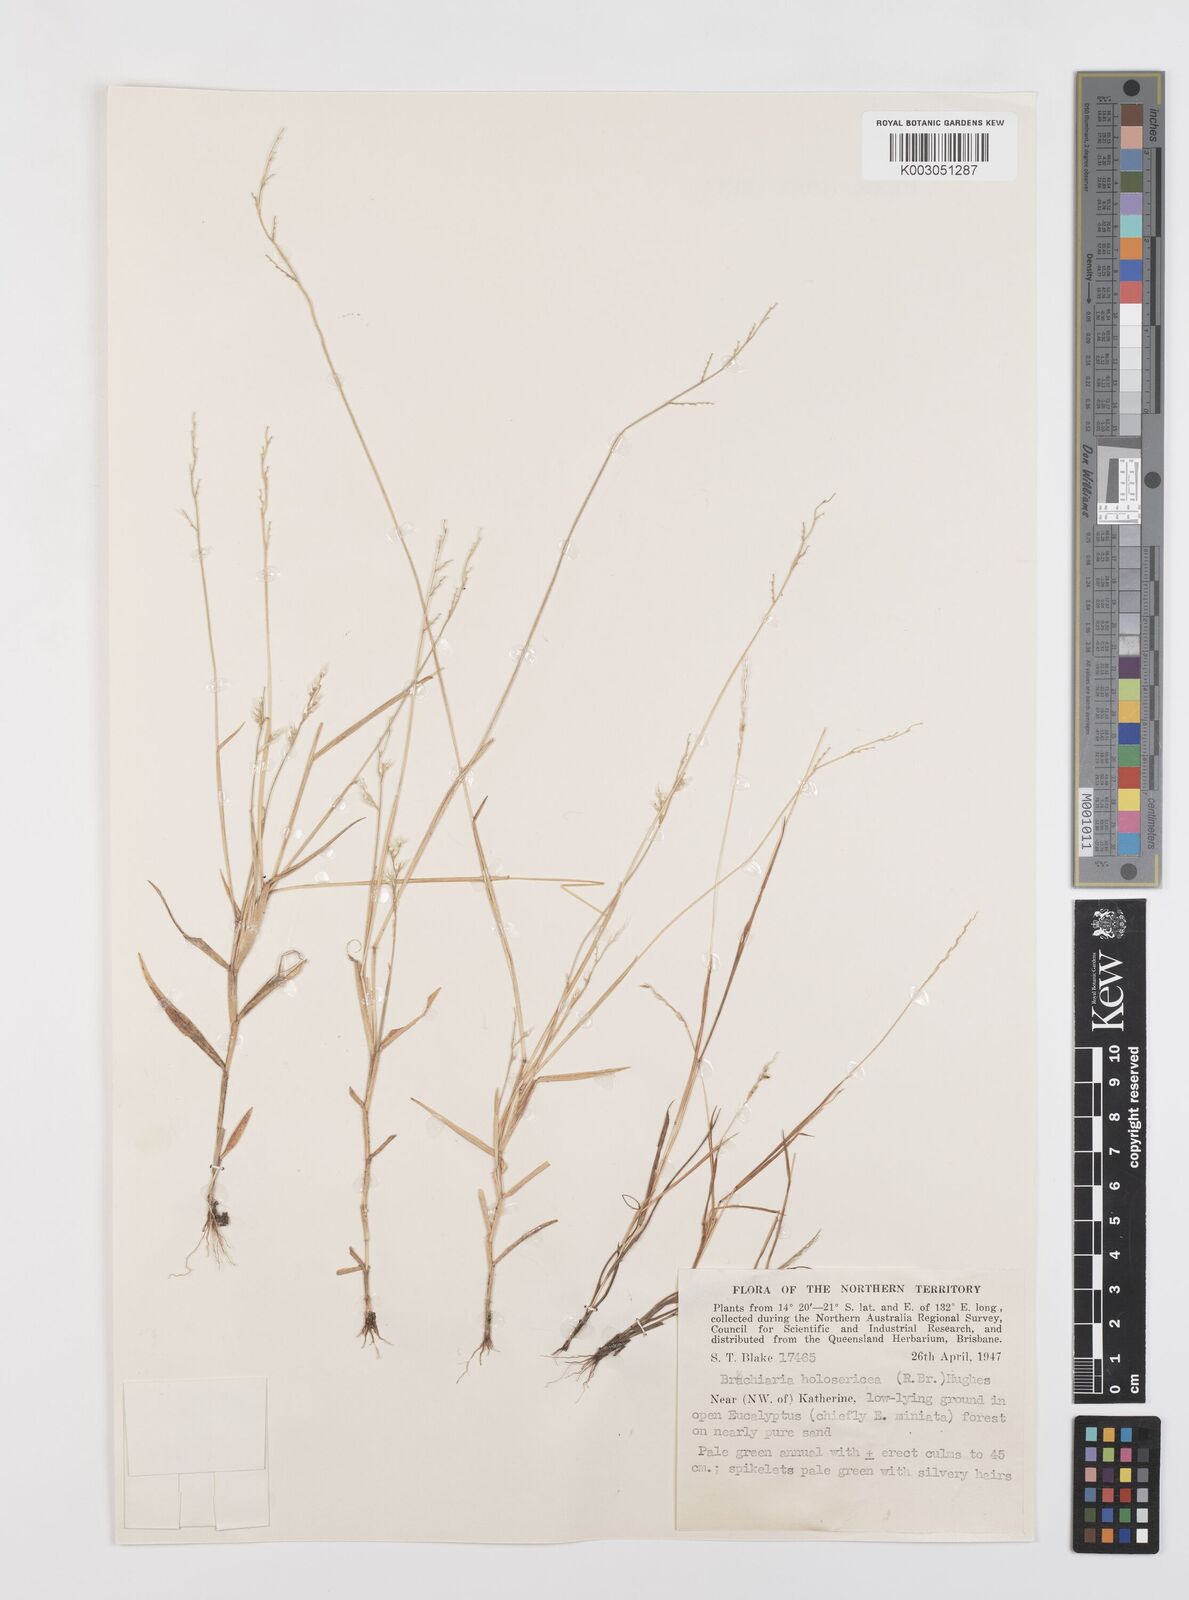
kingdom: Plantae
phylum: Tracheophyta
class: Liliopsida
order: Poales
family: Poaceae
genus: Urochloa
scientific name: Urochloa holosericea
